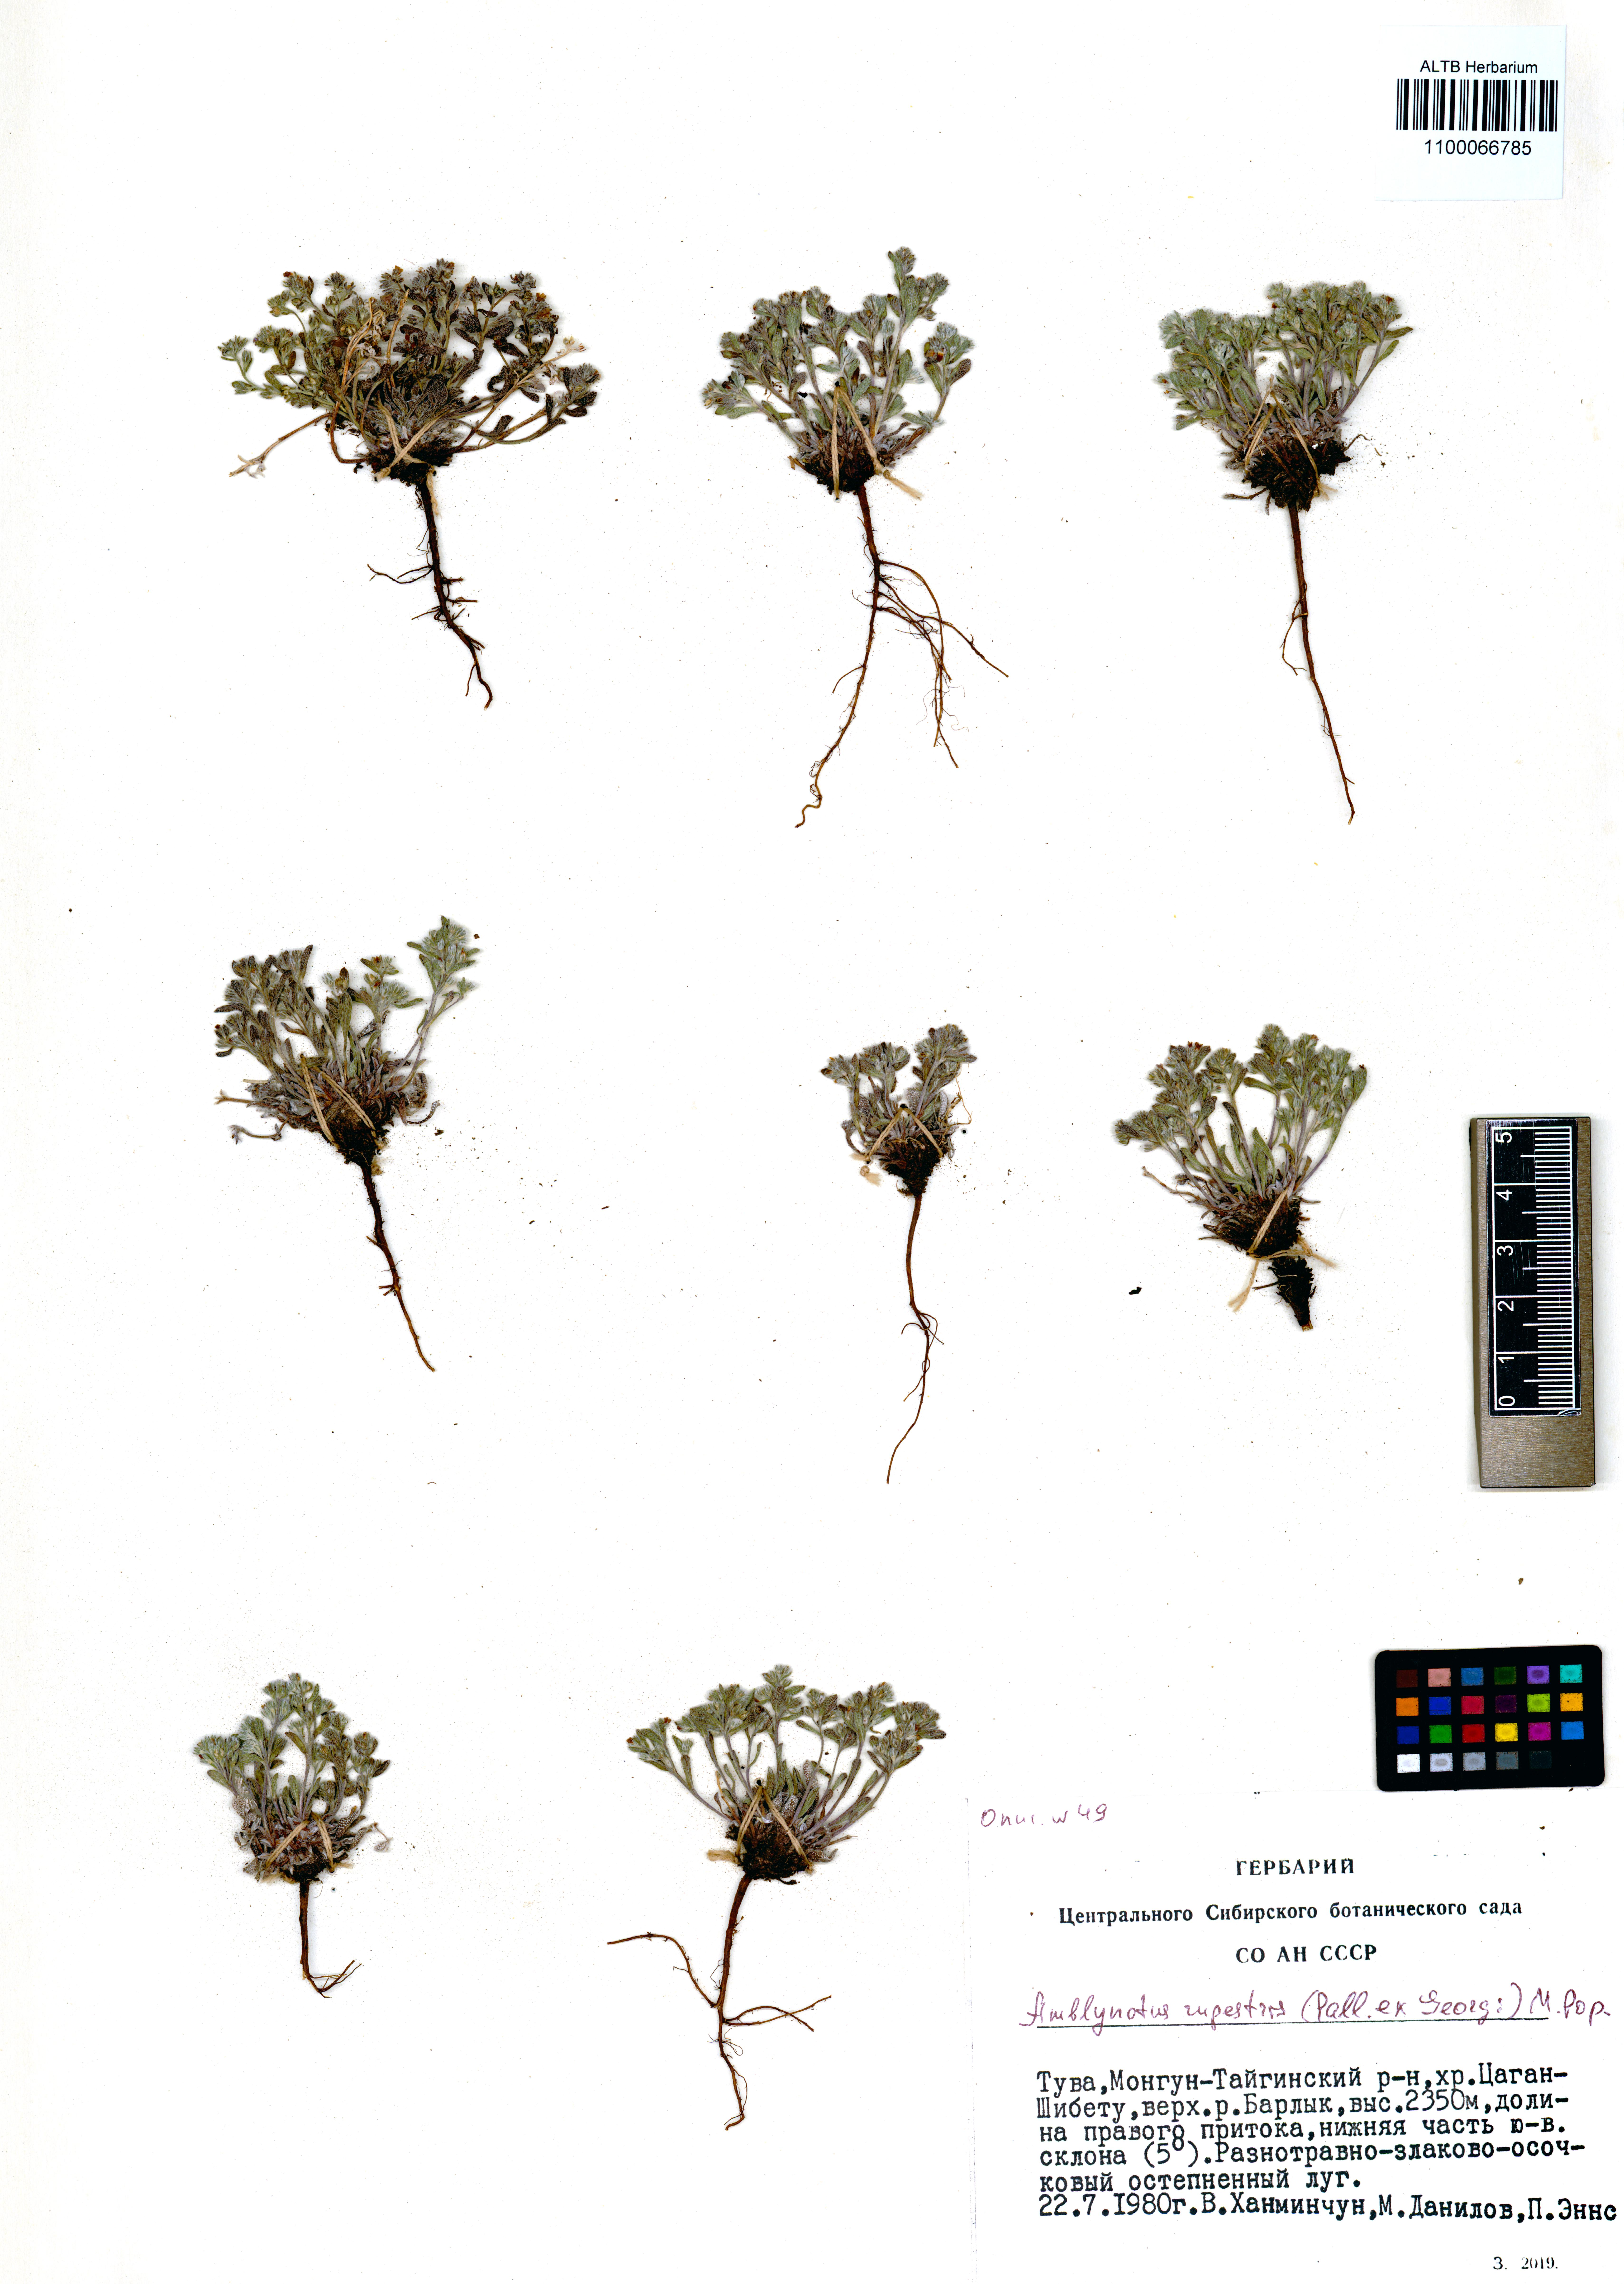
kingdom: Plantae
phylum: Tracheophyta
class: Magnoliopsida
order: Boraginales
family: Boraginaceae
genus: Eritrichium
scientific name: Eritrichium rupestre
